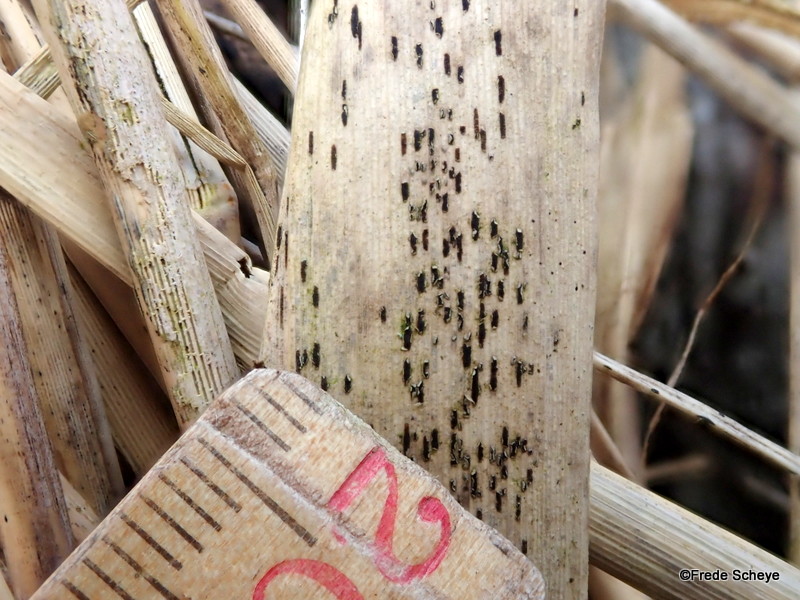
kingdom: Fungi
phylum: Basidiomycota
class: Pucciniomycetes
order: Pucciniales
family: Pucciniaceae
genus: Puccinia
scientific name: Puccinia magnusiana
